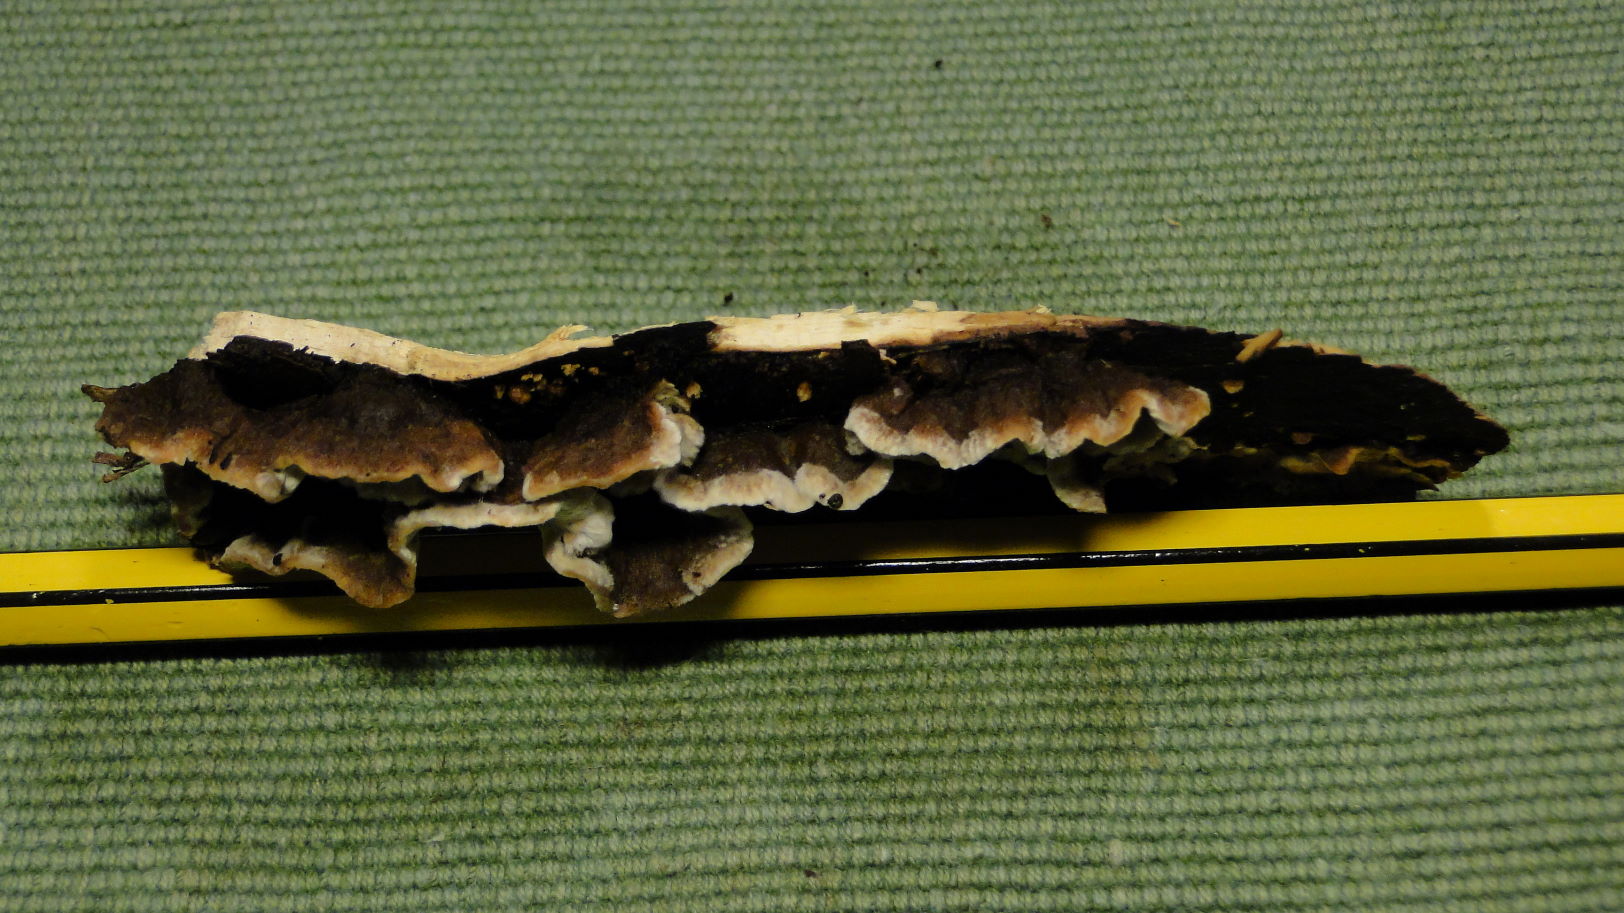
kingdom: Fungi
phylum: Basidiomycota
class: Agaricomycetes
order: Russulales
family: Hericiaceae
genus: Laxitextum
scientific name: Laxitextum bicolor
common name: tvefarvet filtskind
